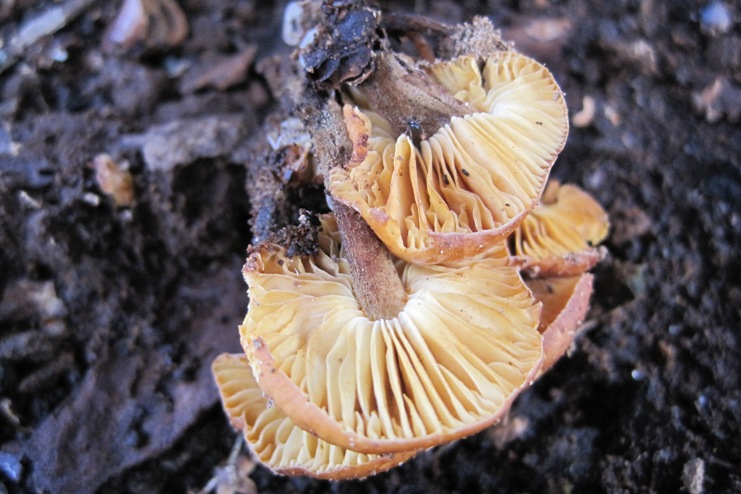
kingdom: Fungi
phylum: Basidiomycota
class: Agaricomycetes
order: Agaricales
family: Physalacriaceae
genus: Flammulina
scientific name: Flammulina velutipes
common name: gul fløjlsfod
